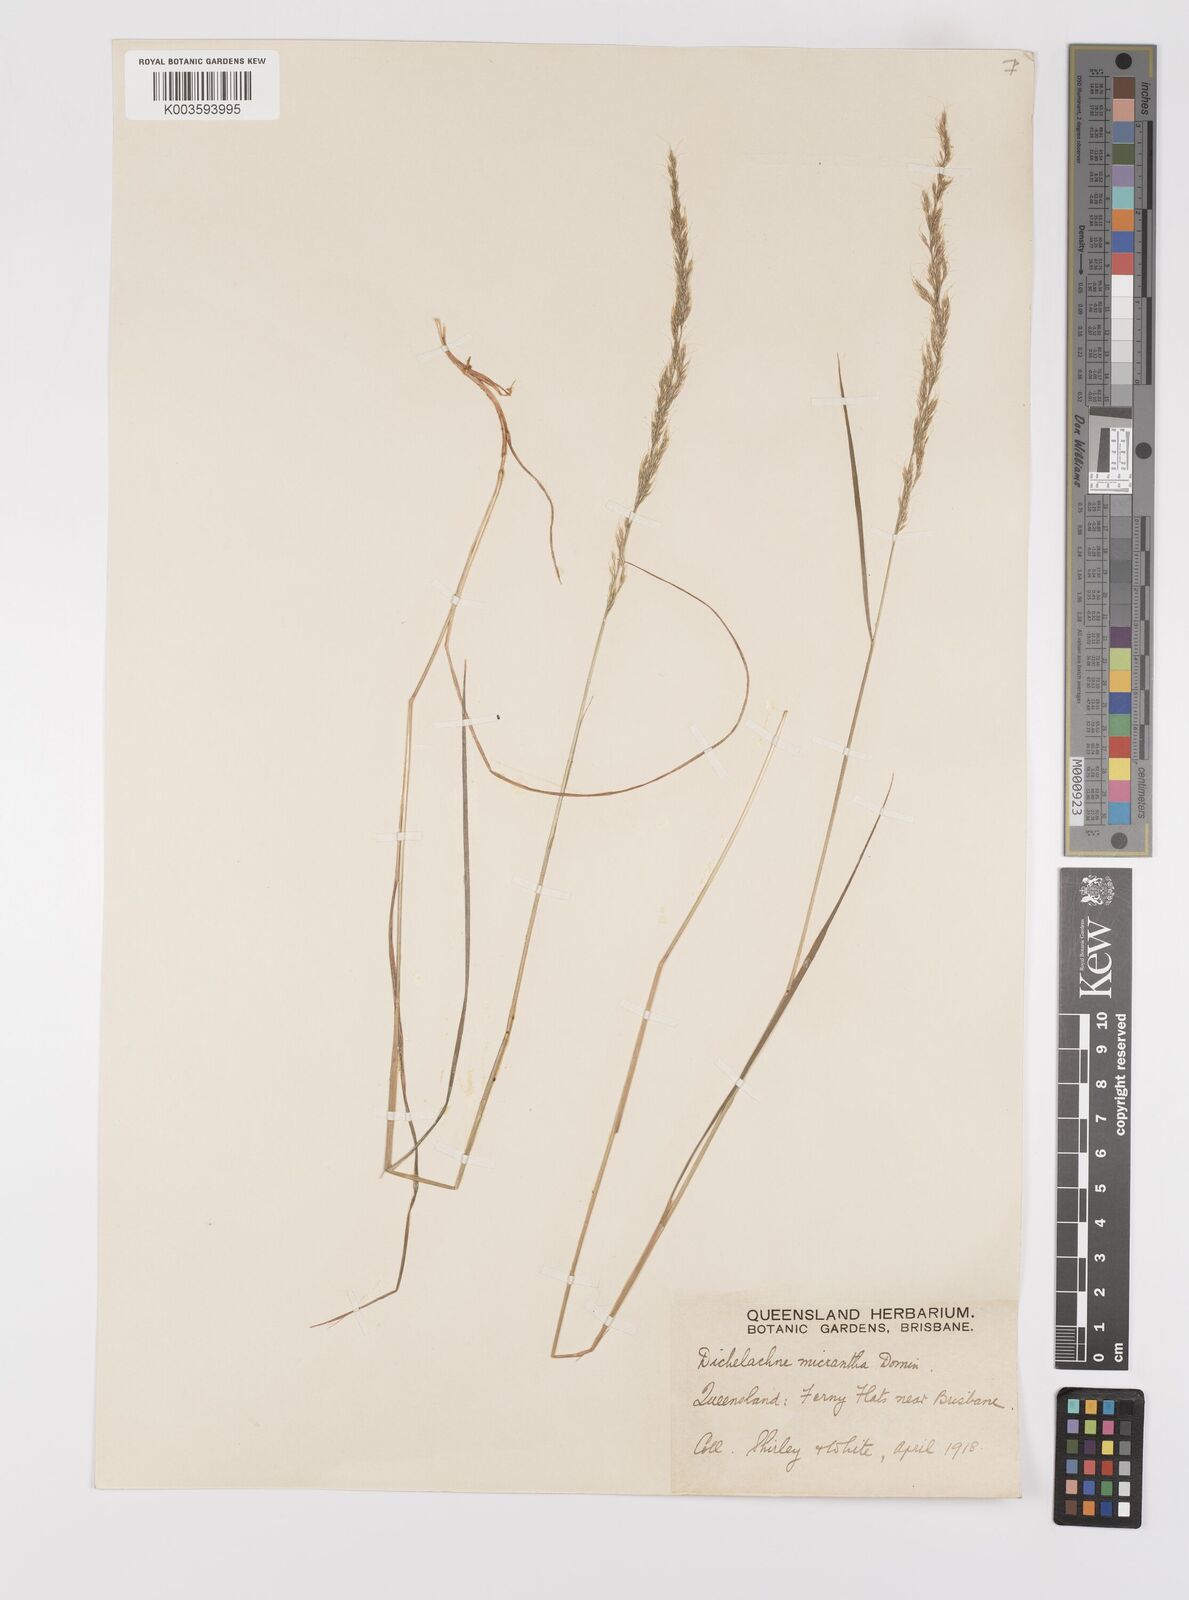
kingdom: Plantae
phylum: Tracheophyta
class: Liliopsida
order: Poales
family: Poaceae
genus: Dichelachne
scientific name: Dichelachne micrantha
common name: Plumegrass
